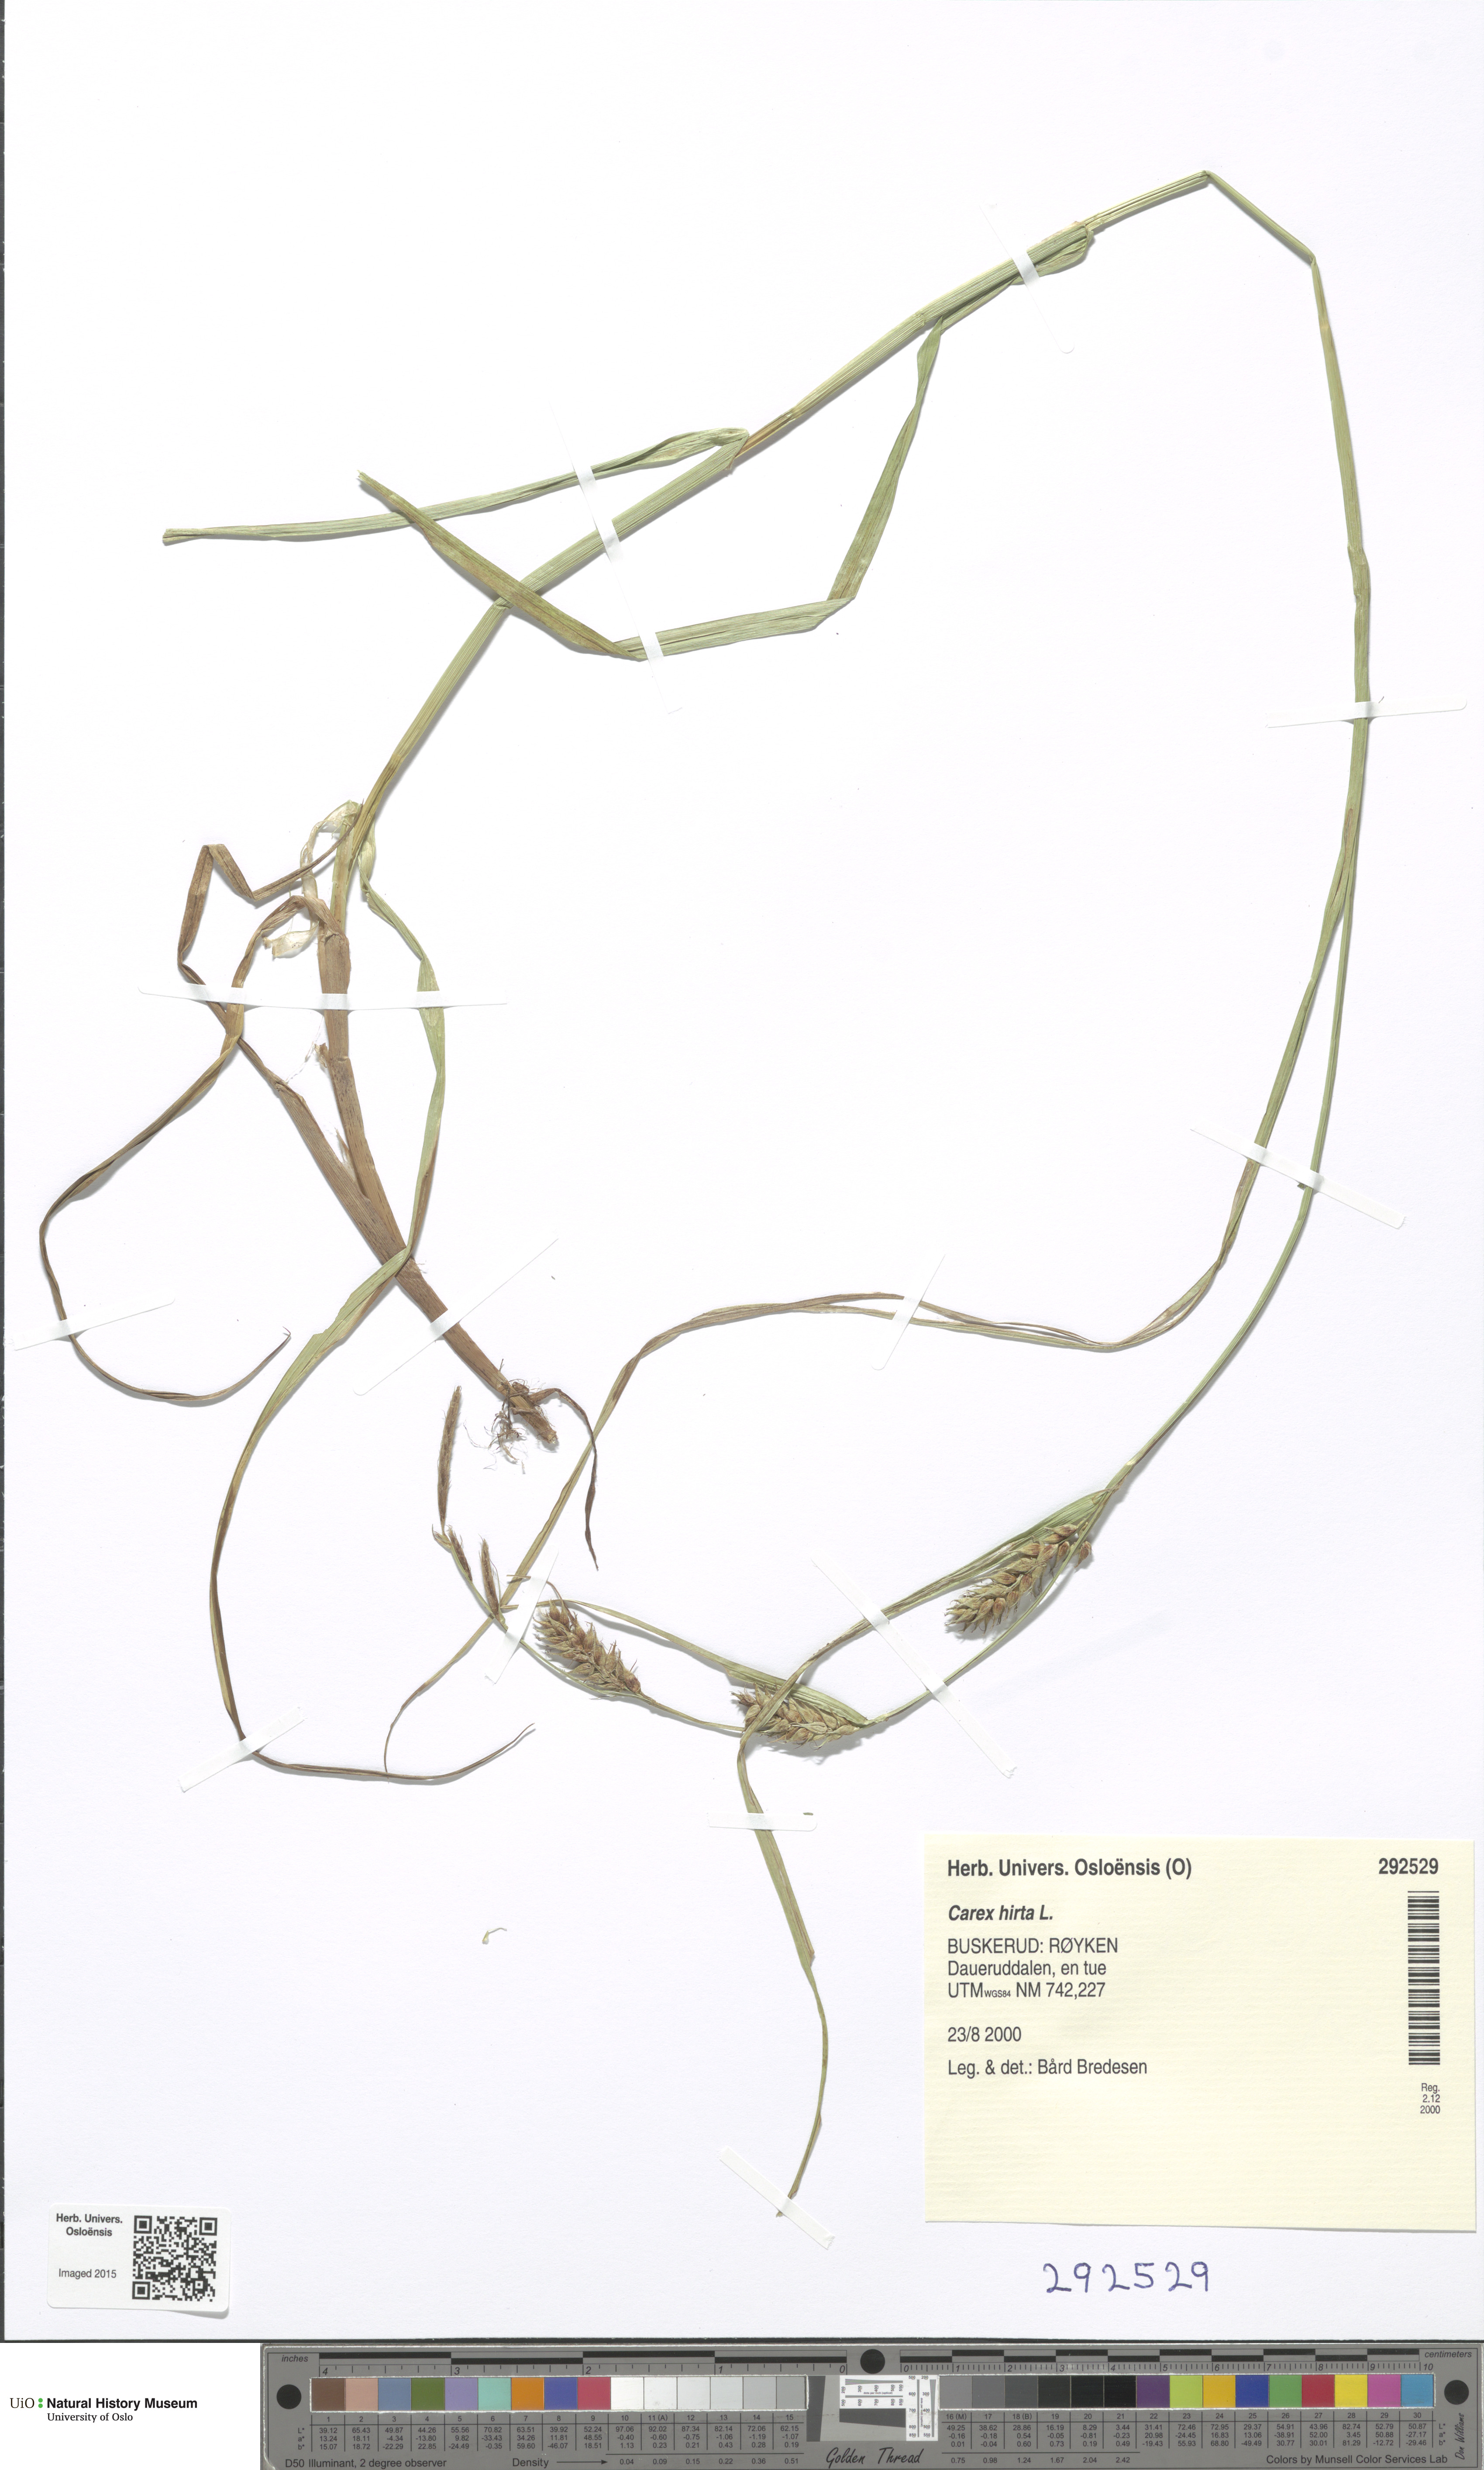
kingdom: Plantae
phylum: Tracheophyta
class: Liliopsida
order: Poales
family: Cyperaceae
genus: Carex
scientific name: Carex hirta
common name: Hairy sedge
